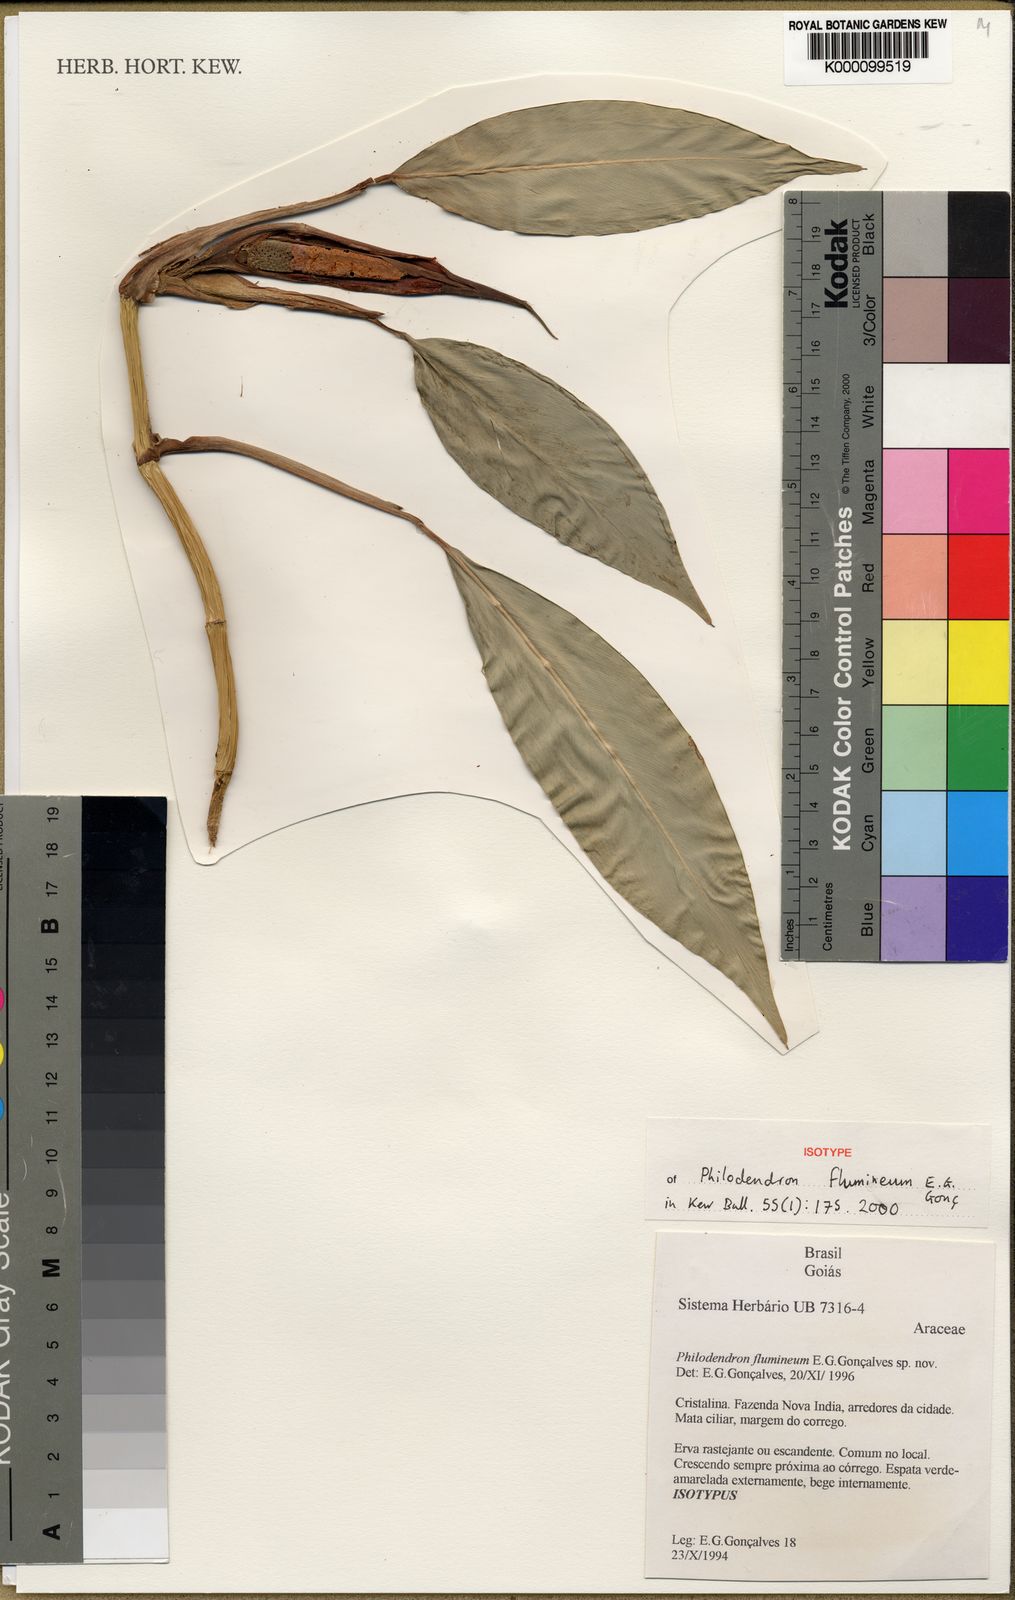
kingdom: Plantae
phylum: Tracheophyta
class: Liliopsida
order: Alismatales
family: Araceae
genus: Philodendron
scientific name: Philodendron
